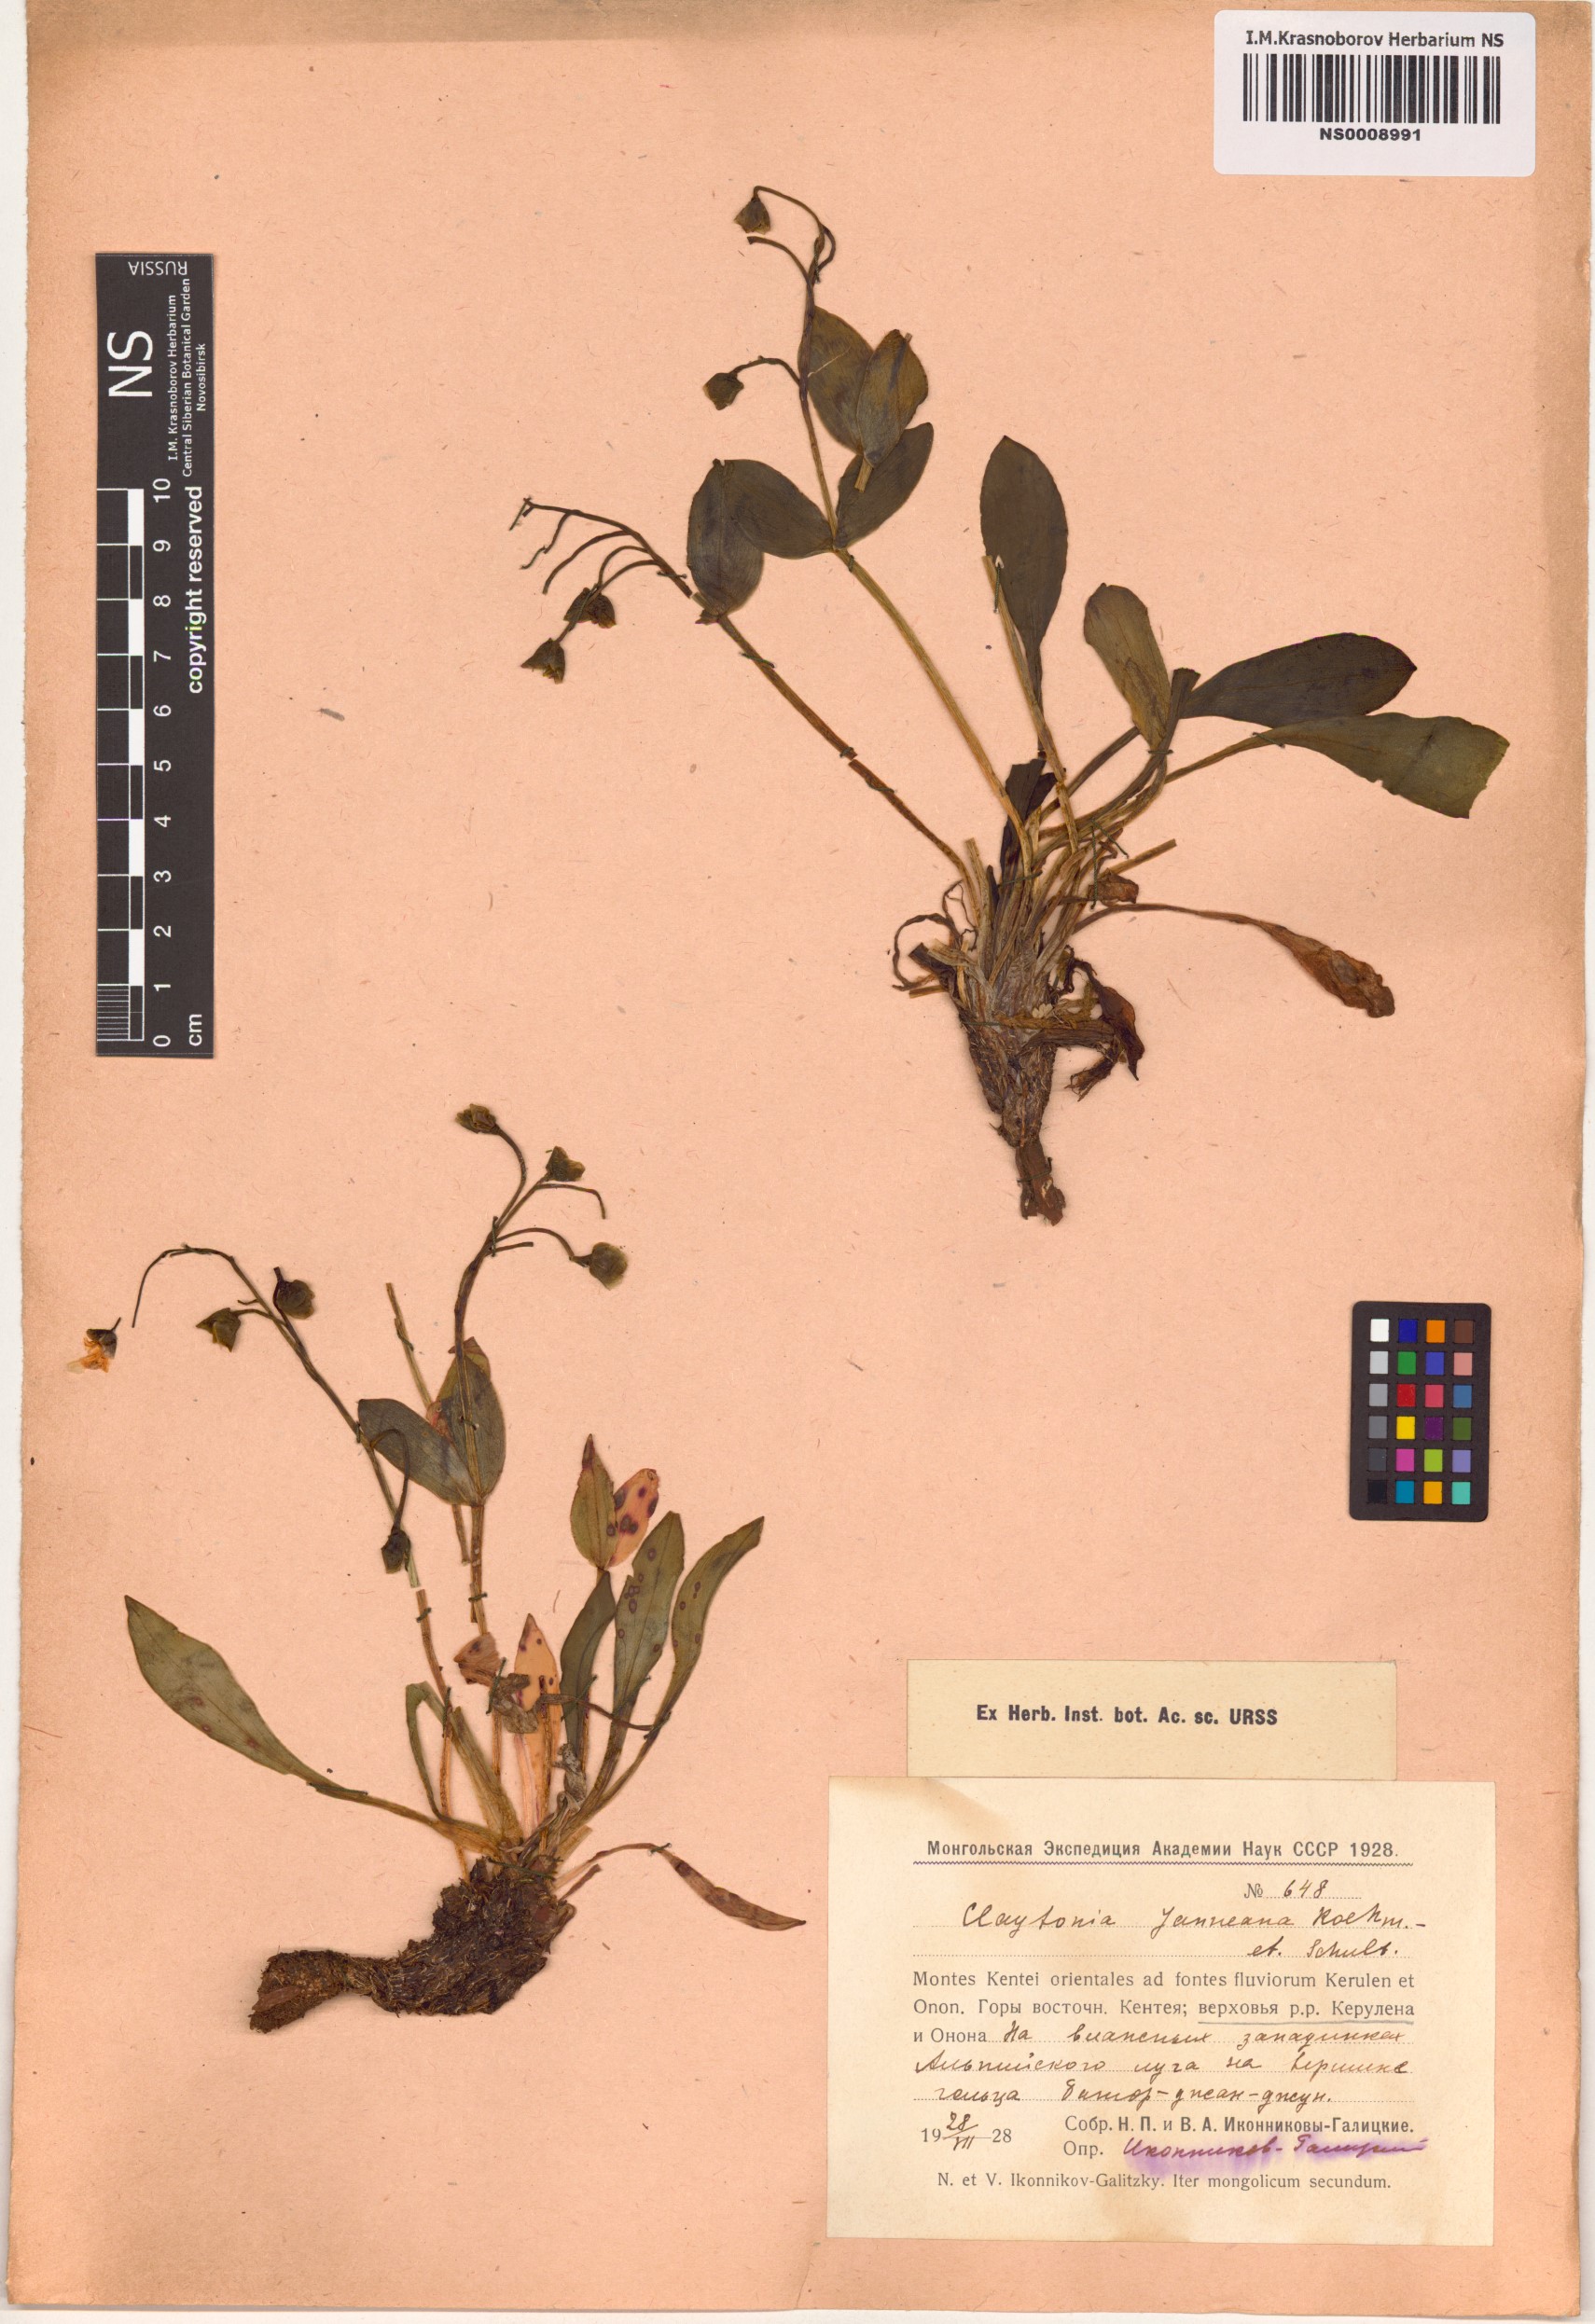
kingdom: Plantae
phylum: Tracheophyta
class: Magnoliopsida
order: Caryophyllales
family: Montiaceae
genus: Claytonia
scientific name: Claytonia joanneana
